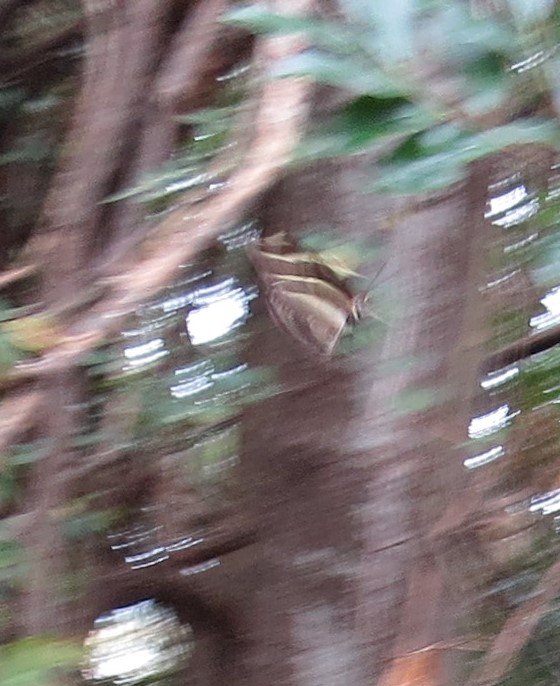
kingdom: Animalia
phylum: Arthropoda
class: Insecta
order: Lepidoptera
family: Nymphalidae
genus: Heliconius
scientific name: Heliconius charithonia
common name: Zebra Longwing
